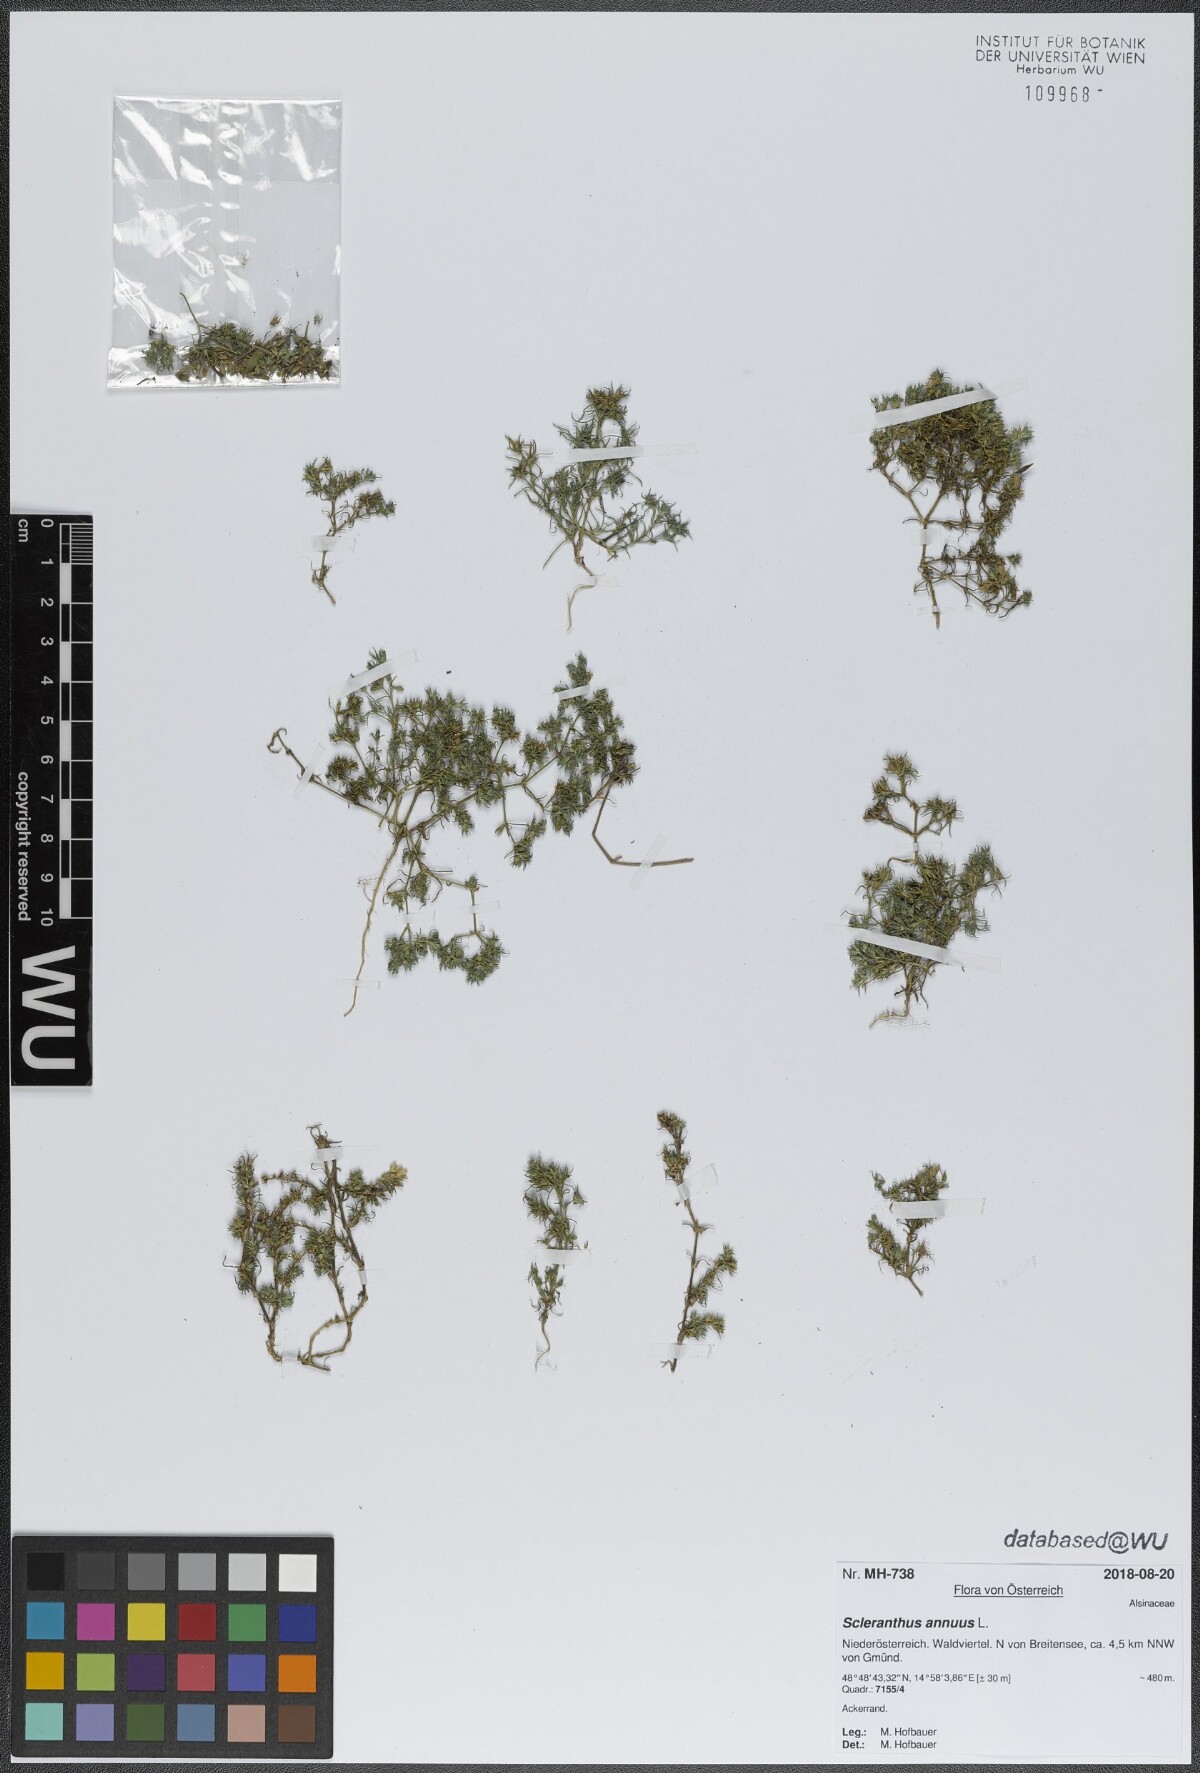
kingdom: Plantae
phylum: Tracheophyta
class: Magnoliopsida
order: Caryophyllales
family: Caryophyllaceae
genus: Scleranthus
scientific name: Scleranthus annuus
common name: Annual knawel
